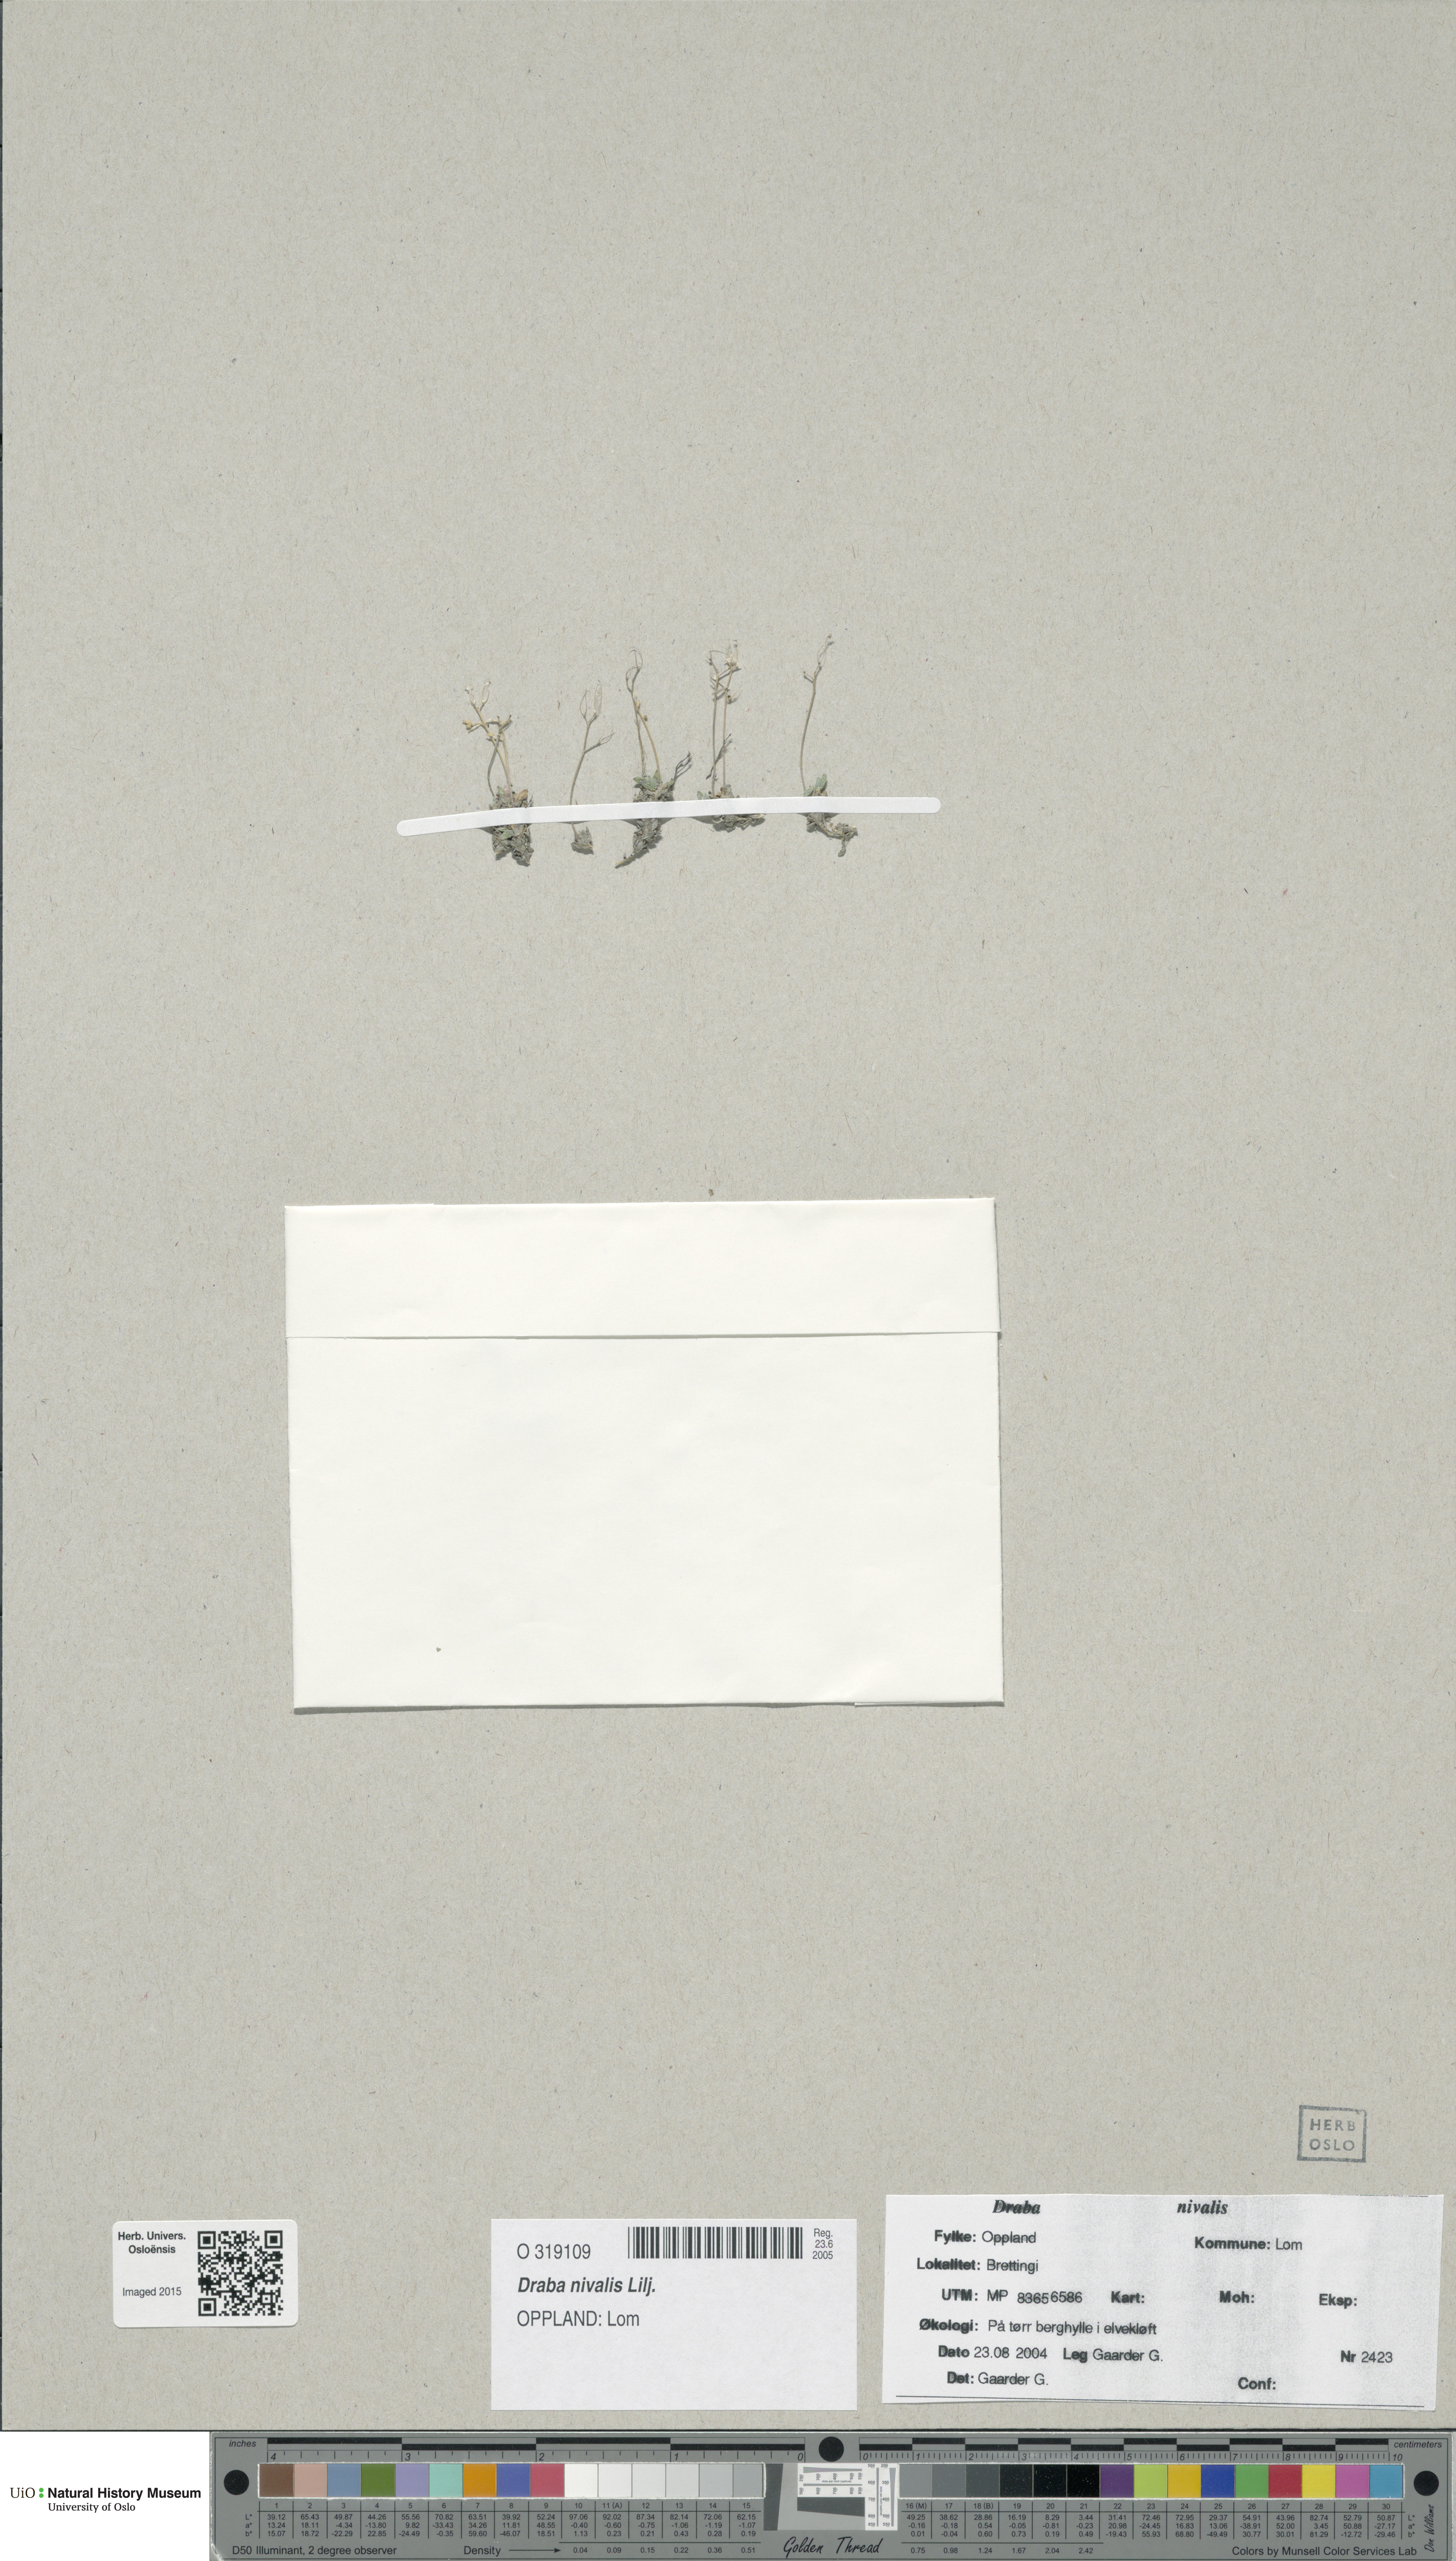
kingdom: Plantae
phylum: Tracheophyta
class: Magnoliopsida
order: Brassicales
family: Brassicaceae
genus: Draba
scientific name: Draba nivalis
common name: Snow draba
